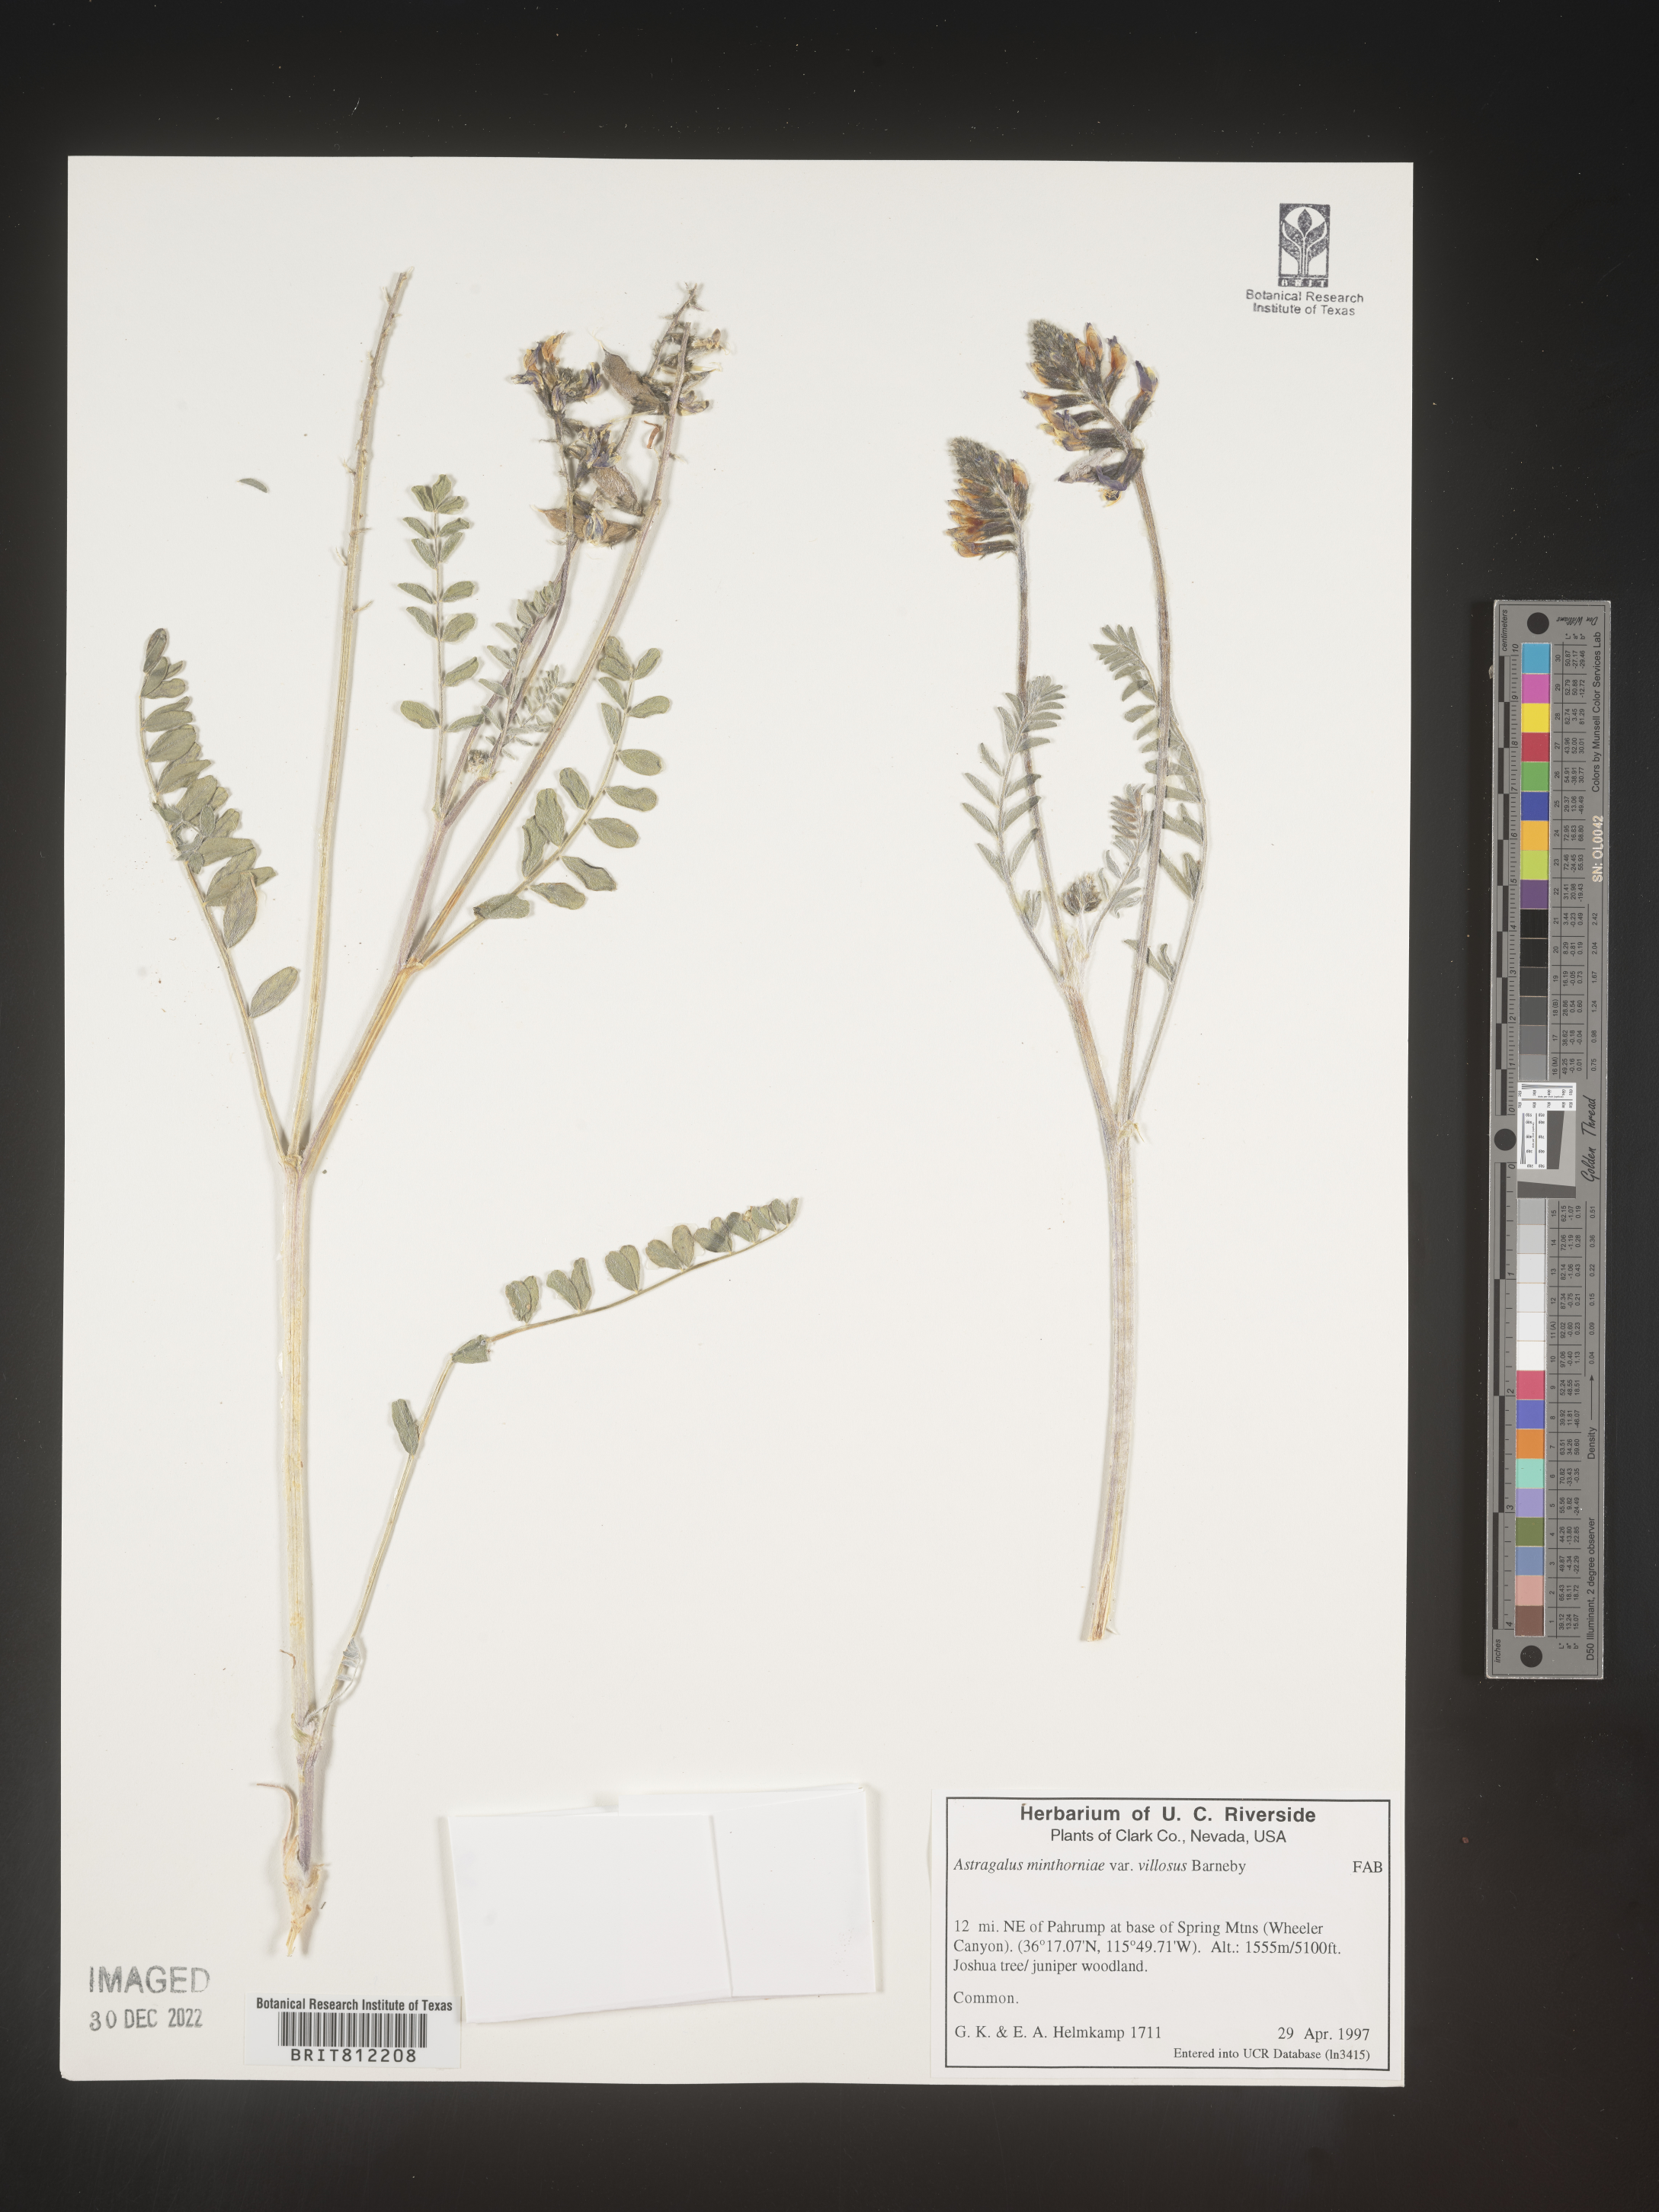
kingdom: Plantae
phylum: Tracheophyta
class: Magnoliopsida
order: Fabales
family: Fabaceae
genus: Astragalus
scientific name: Astragalus
